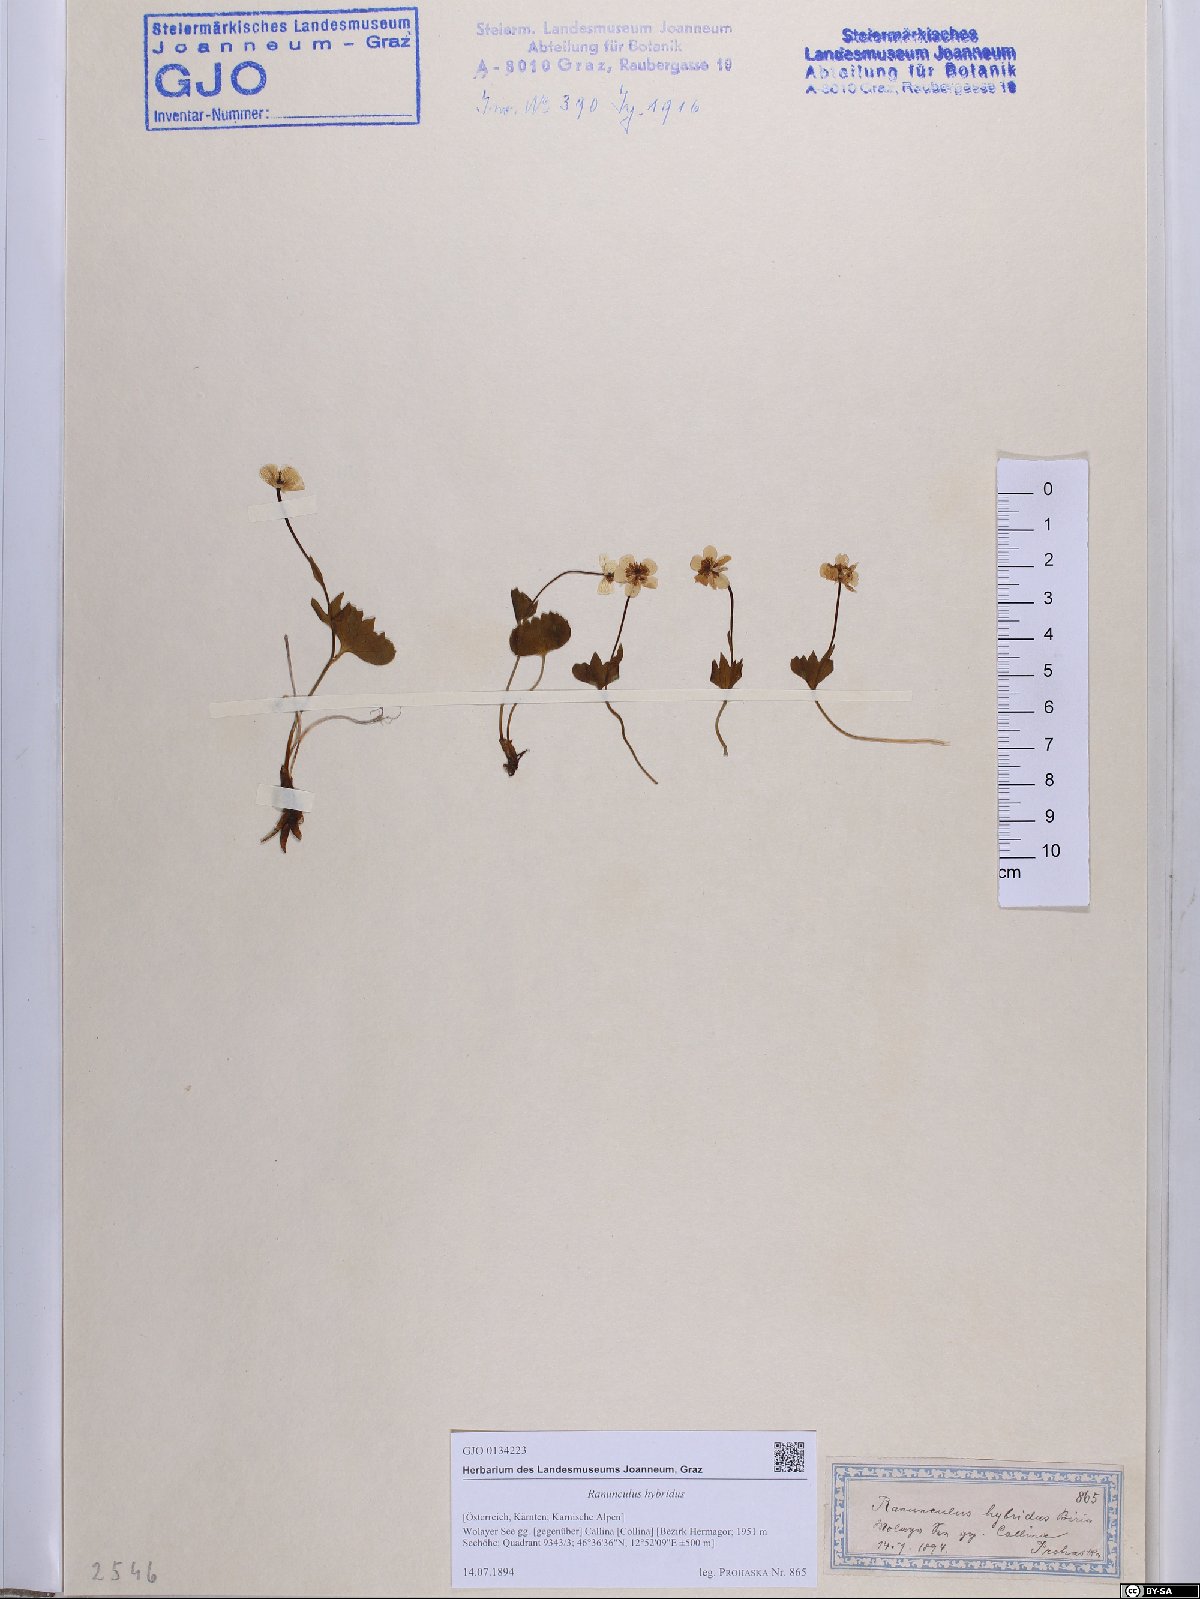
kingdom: Plantae
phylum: Tracheophyta
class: Magnoliopsida
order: Ranunculales
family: Ranunculaceae
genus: Ranunculus
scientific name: Ranunculus hybridus
